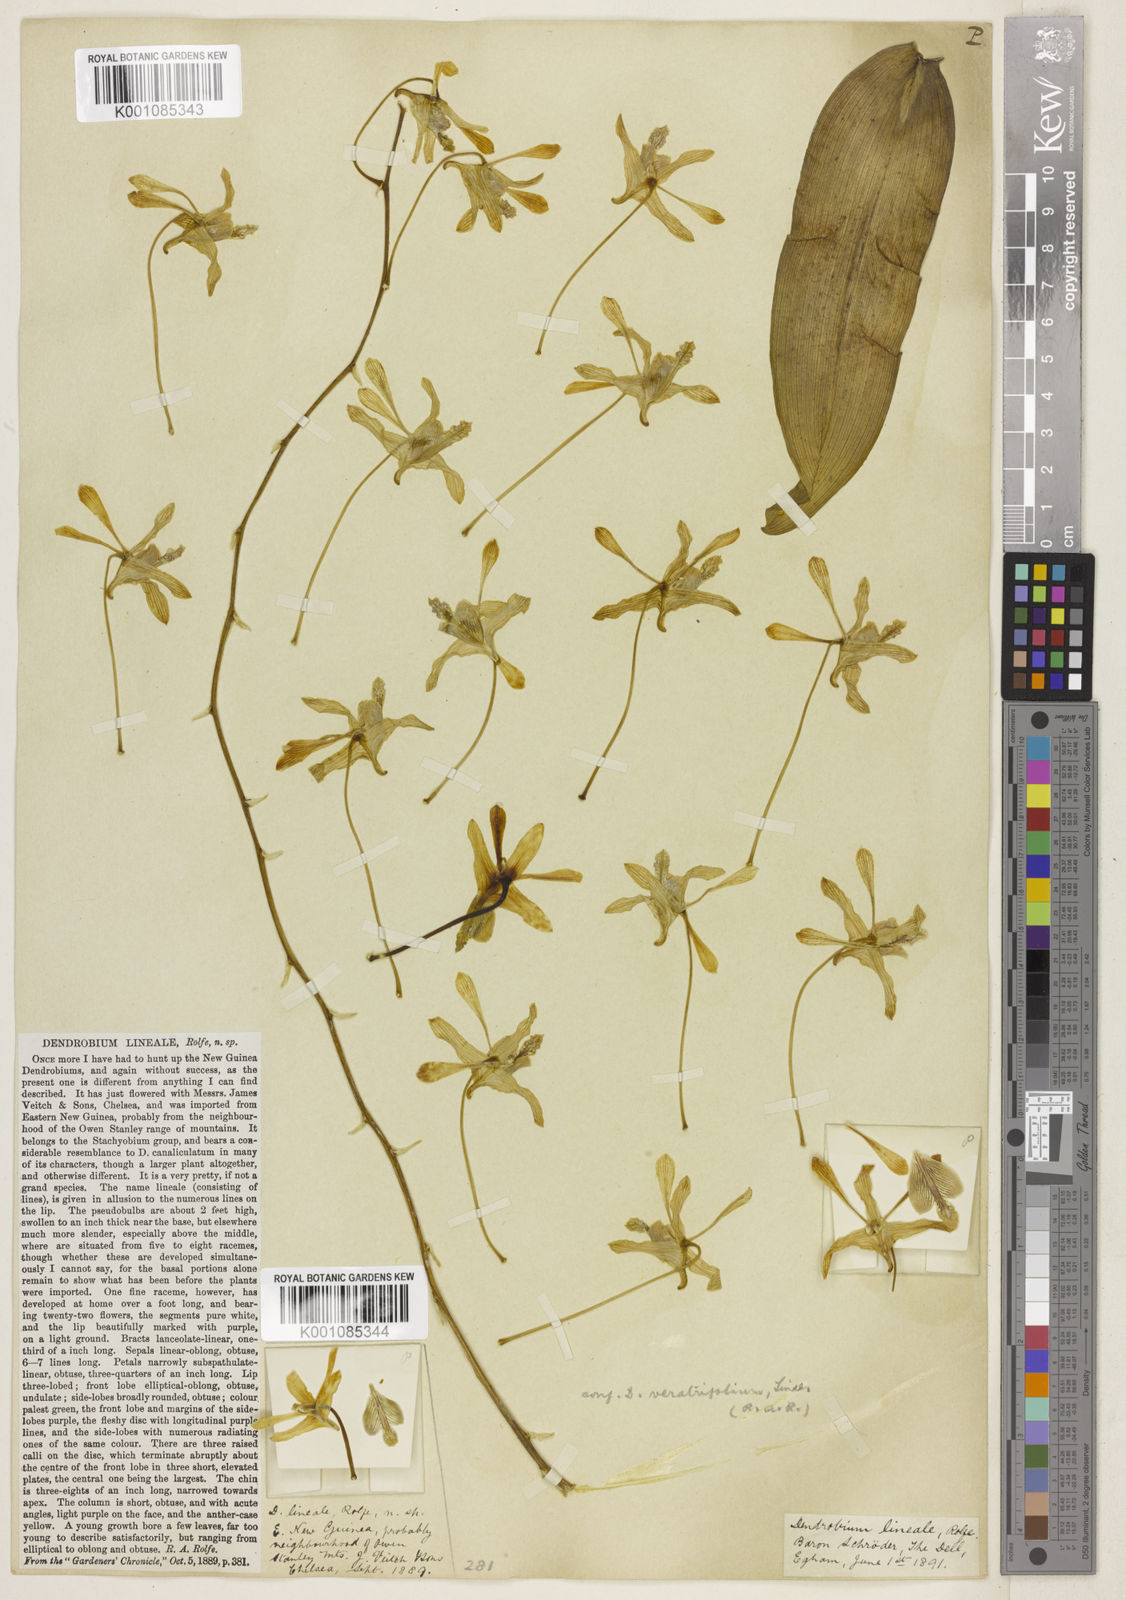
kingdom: Plantae
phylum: Tracheophyta
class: Liliopsida
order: Asparagales
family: Orchidaceae
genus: Dendrobium
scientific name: Dendrobium lineale
